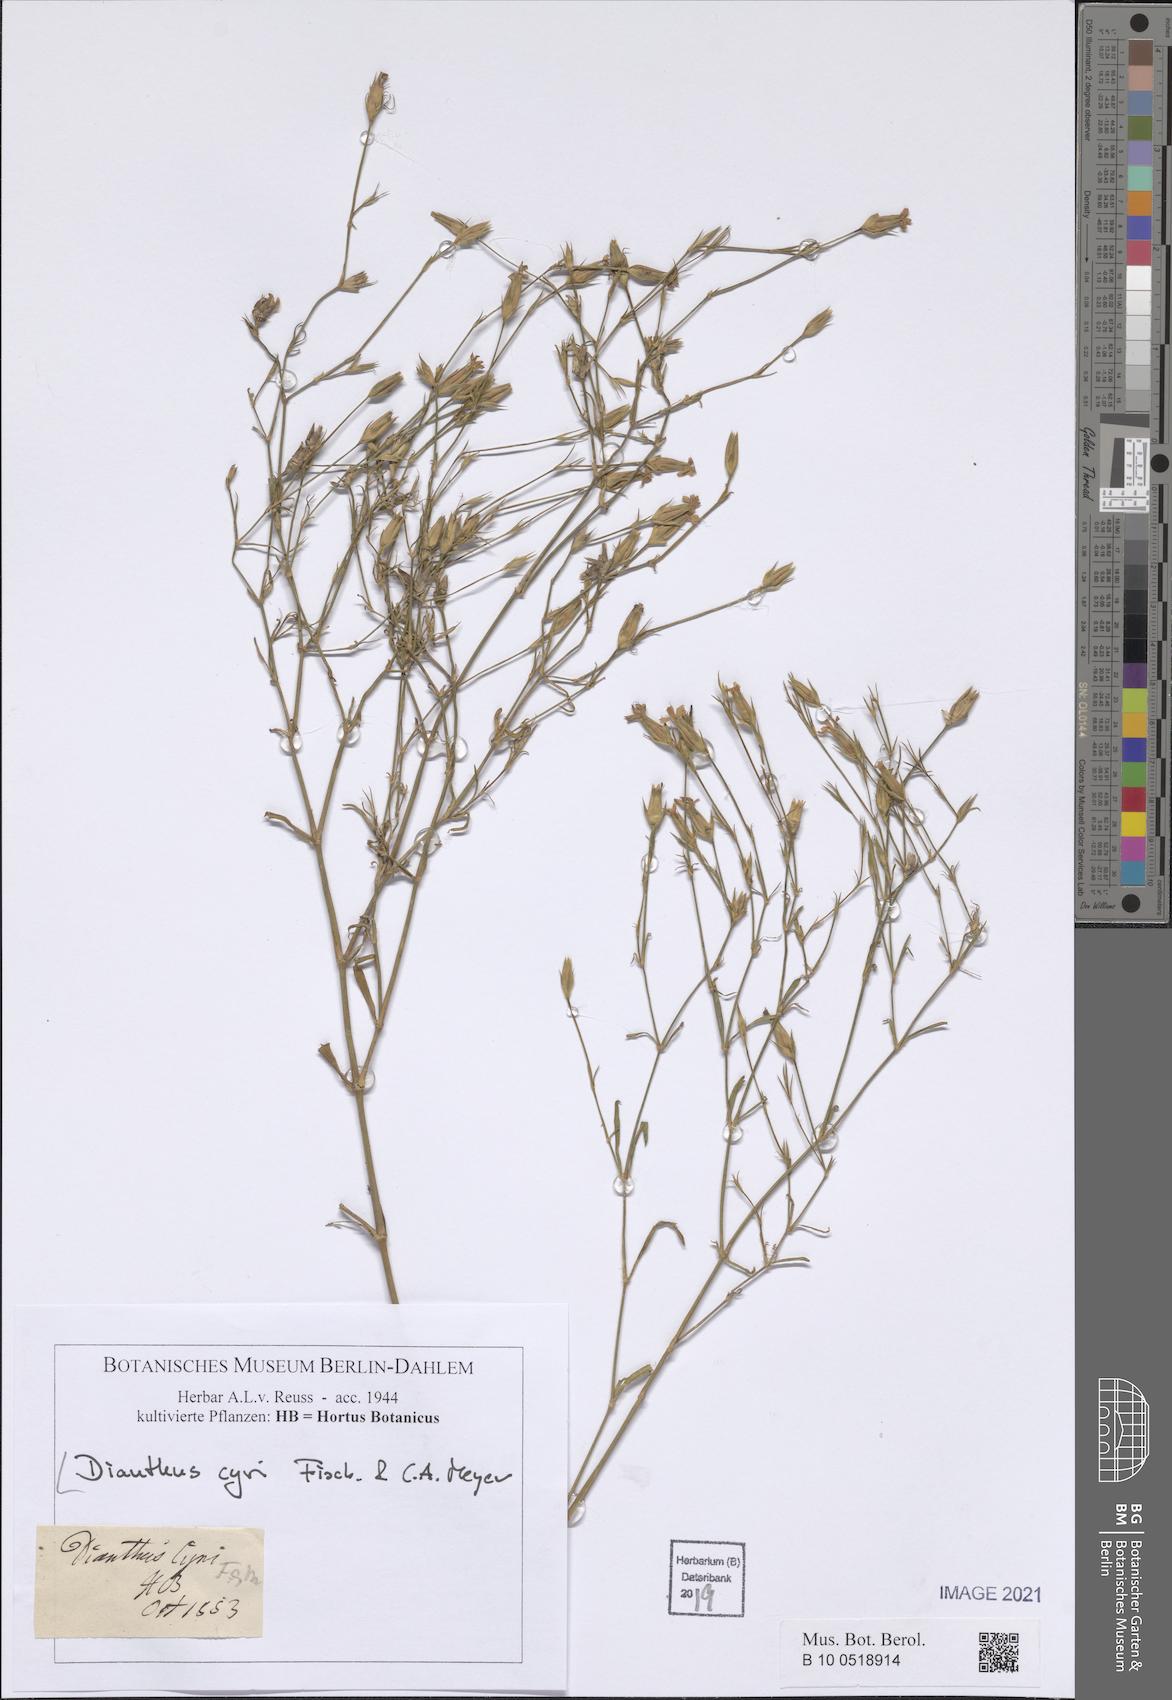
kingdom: Plantae
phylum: Tracheophyta
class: Magnoliopsida
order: Caryophyllales
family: Caryophyllaceae
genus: Dianthus
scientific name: Dianthus cyri
